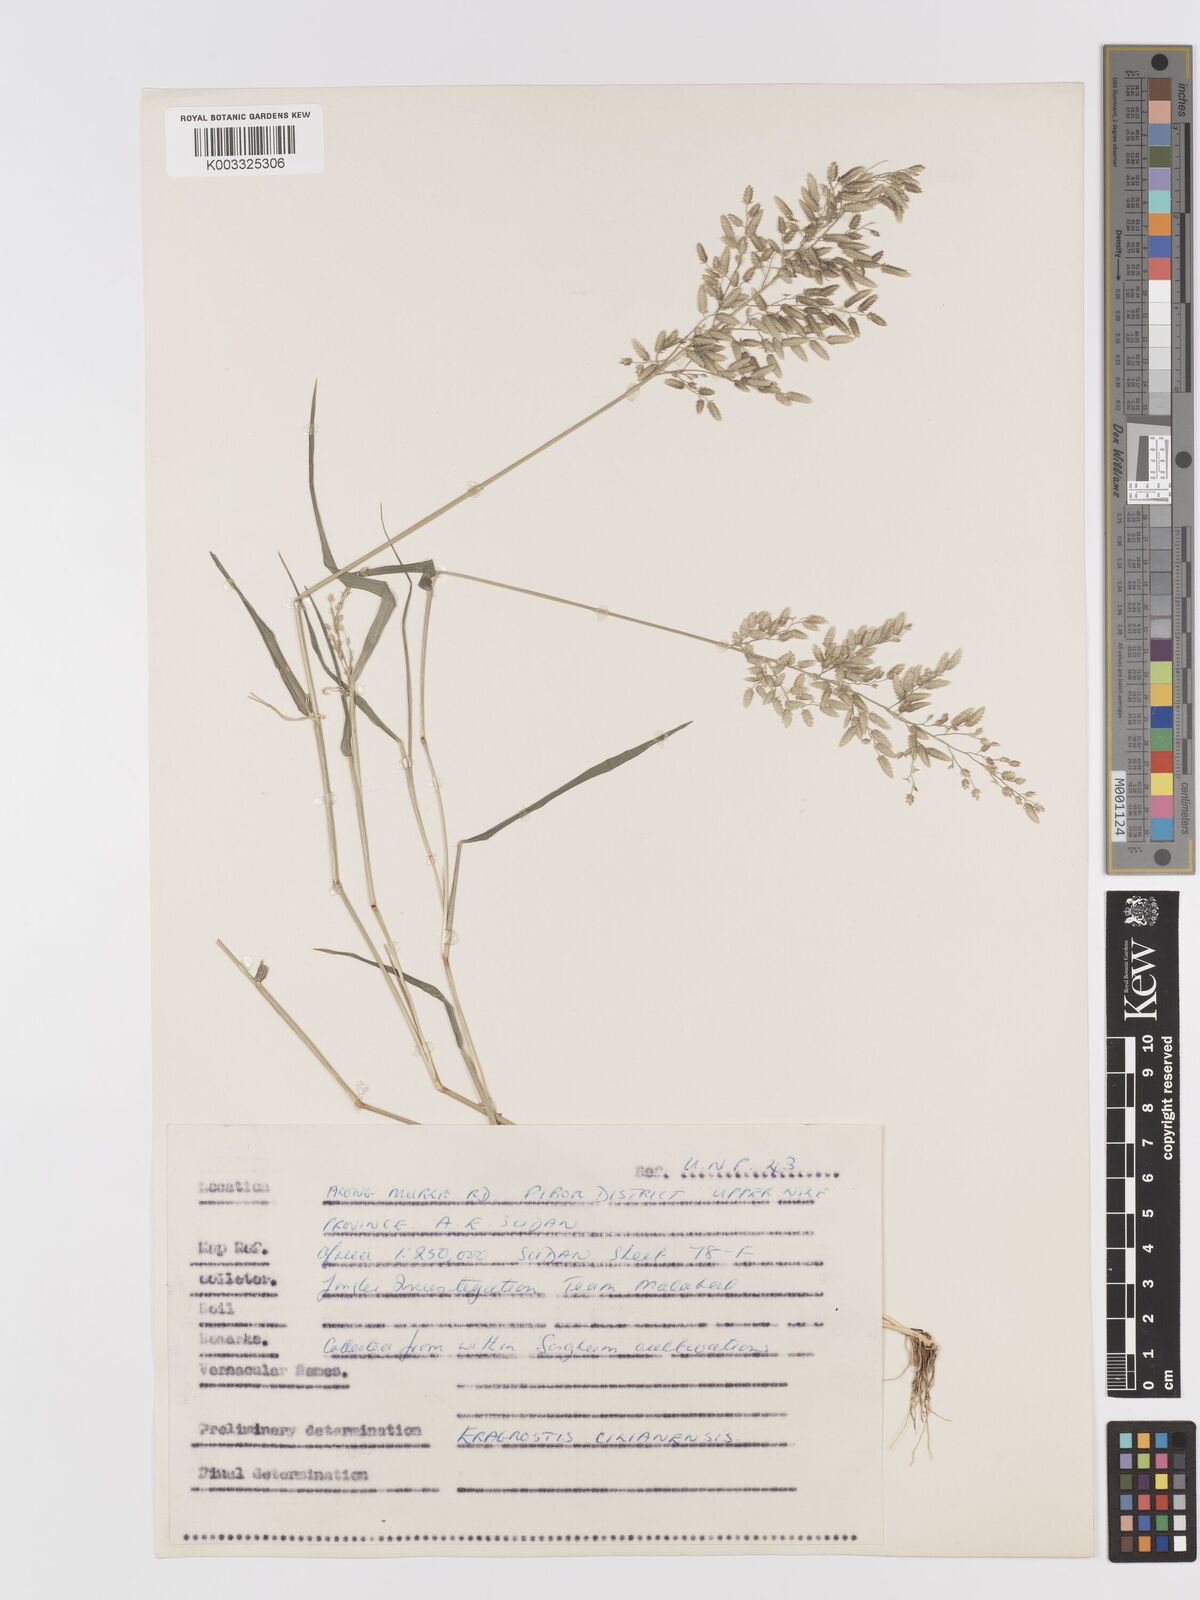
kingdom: Plantae
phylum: Tracheophyta
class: Liliopsida
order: Poales
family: Poaceae
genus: Eragrostis
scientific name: Eragrostis cilianensis
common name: Stinkgrass
